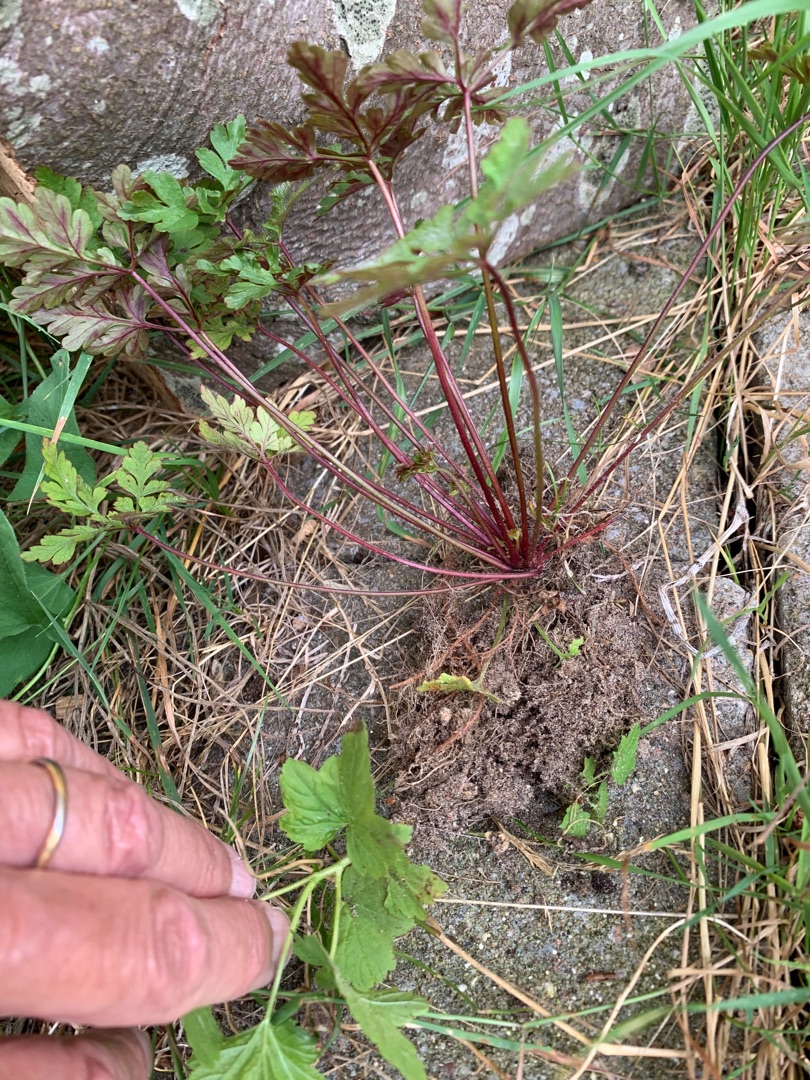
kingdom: Plantae
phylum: Tracheophyta
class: Magnoliopsida
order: Geraniales
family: Geraniaceae
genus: Geranium
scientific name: Geranium robertianum
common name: Stinkende storkenæb
